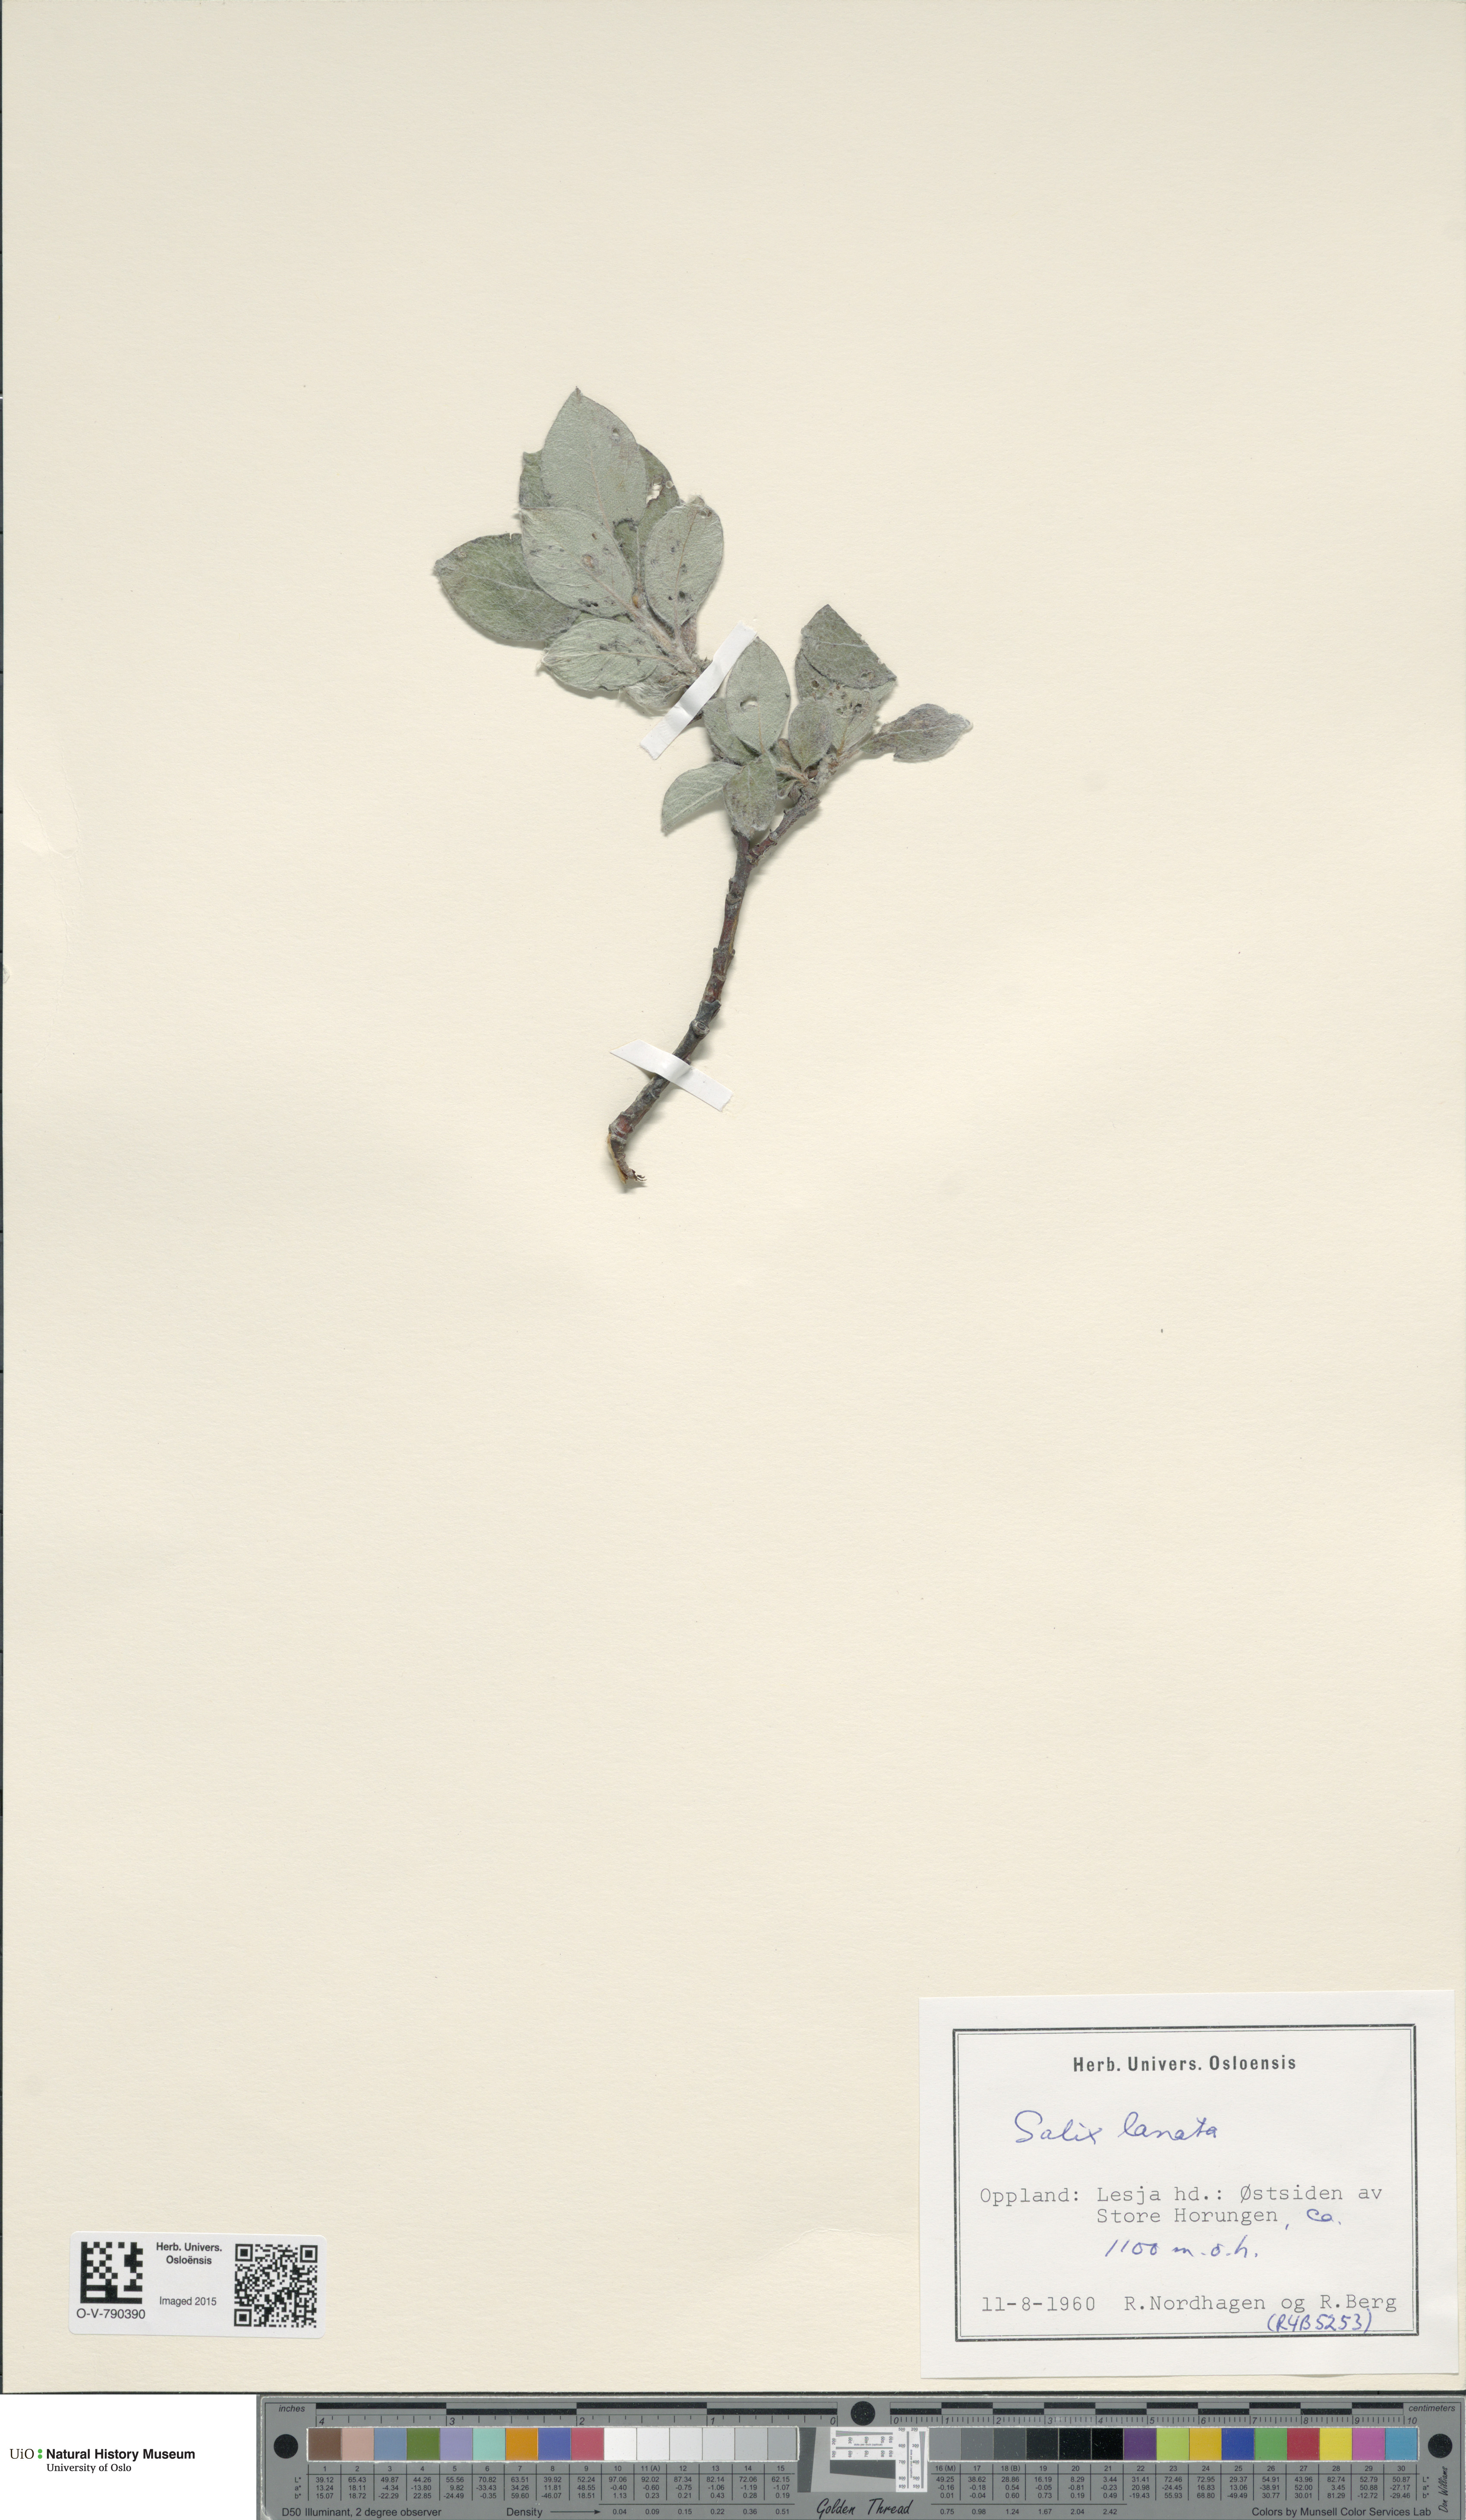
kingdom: Plantae
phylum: Tracheophyta
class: Magnoliopsida
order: Malpighiales
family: Salicaceae
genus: Salix
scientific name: Salix lanata
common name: Woolly willow
